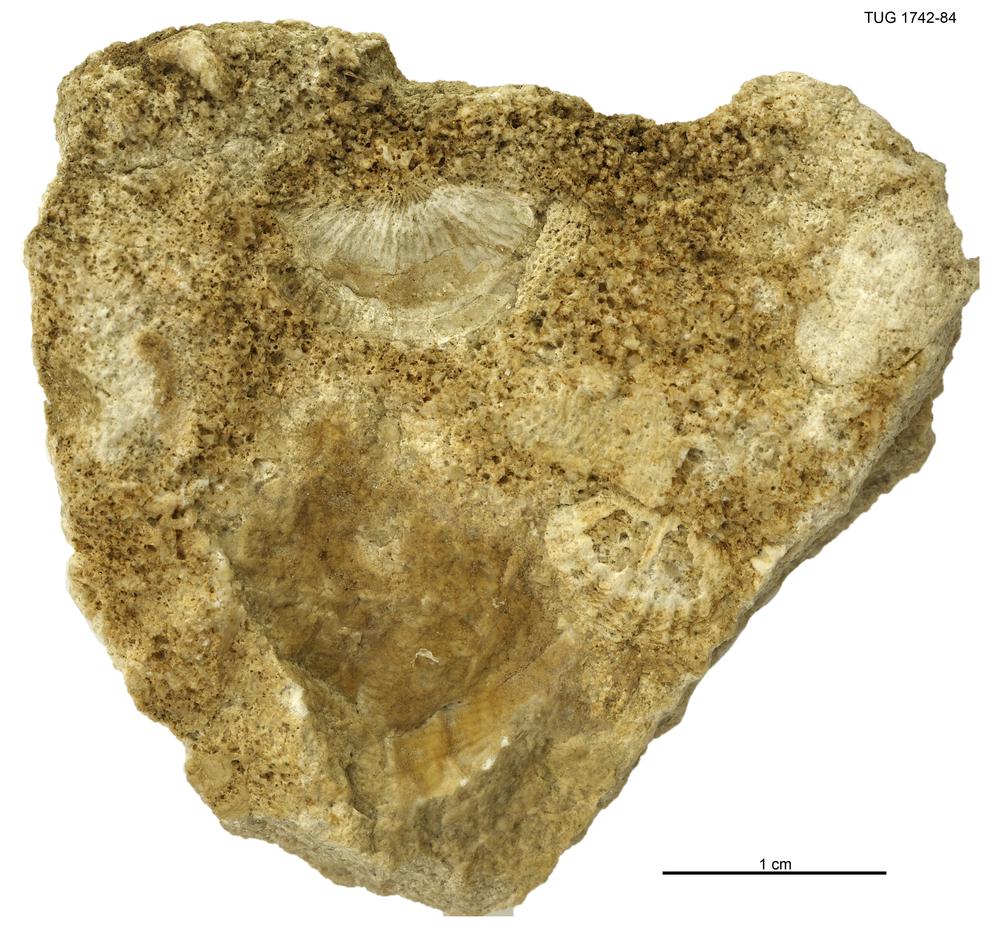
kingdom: Animalia
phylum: Brachiopoda
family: Strophomenidae
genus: Holtedahlina
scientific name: Holtedahlina
